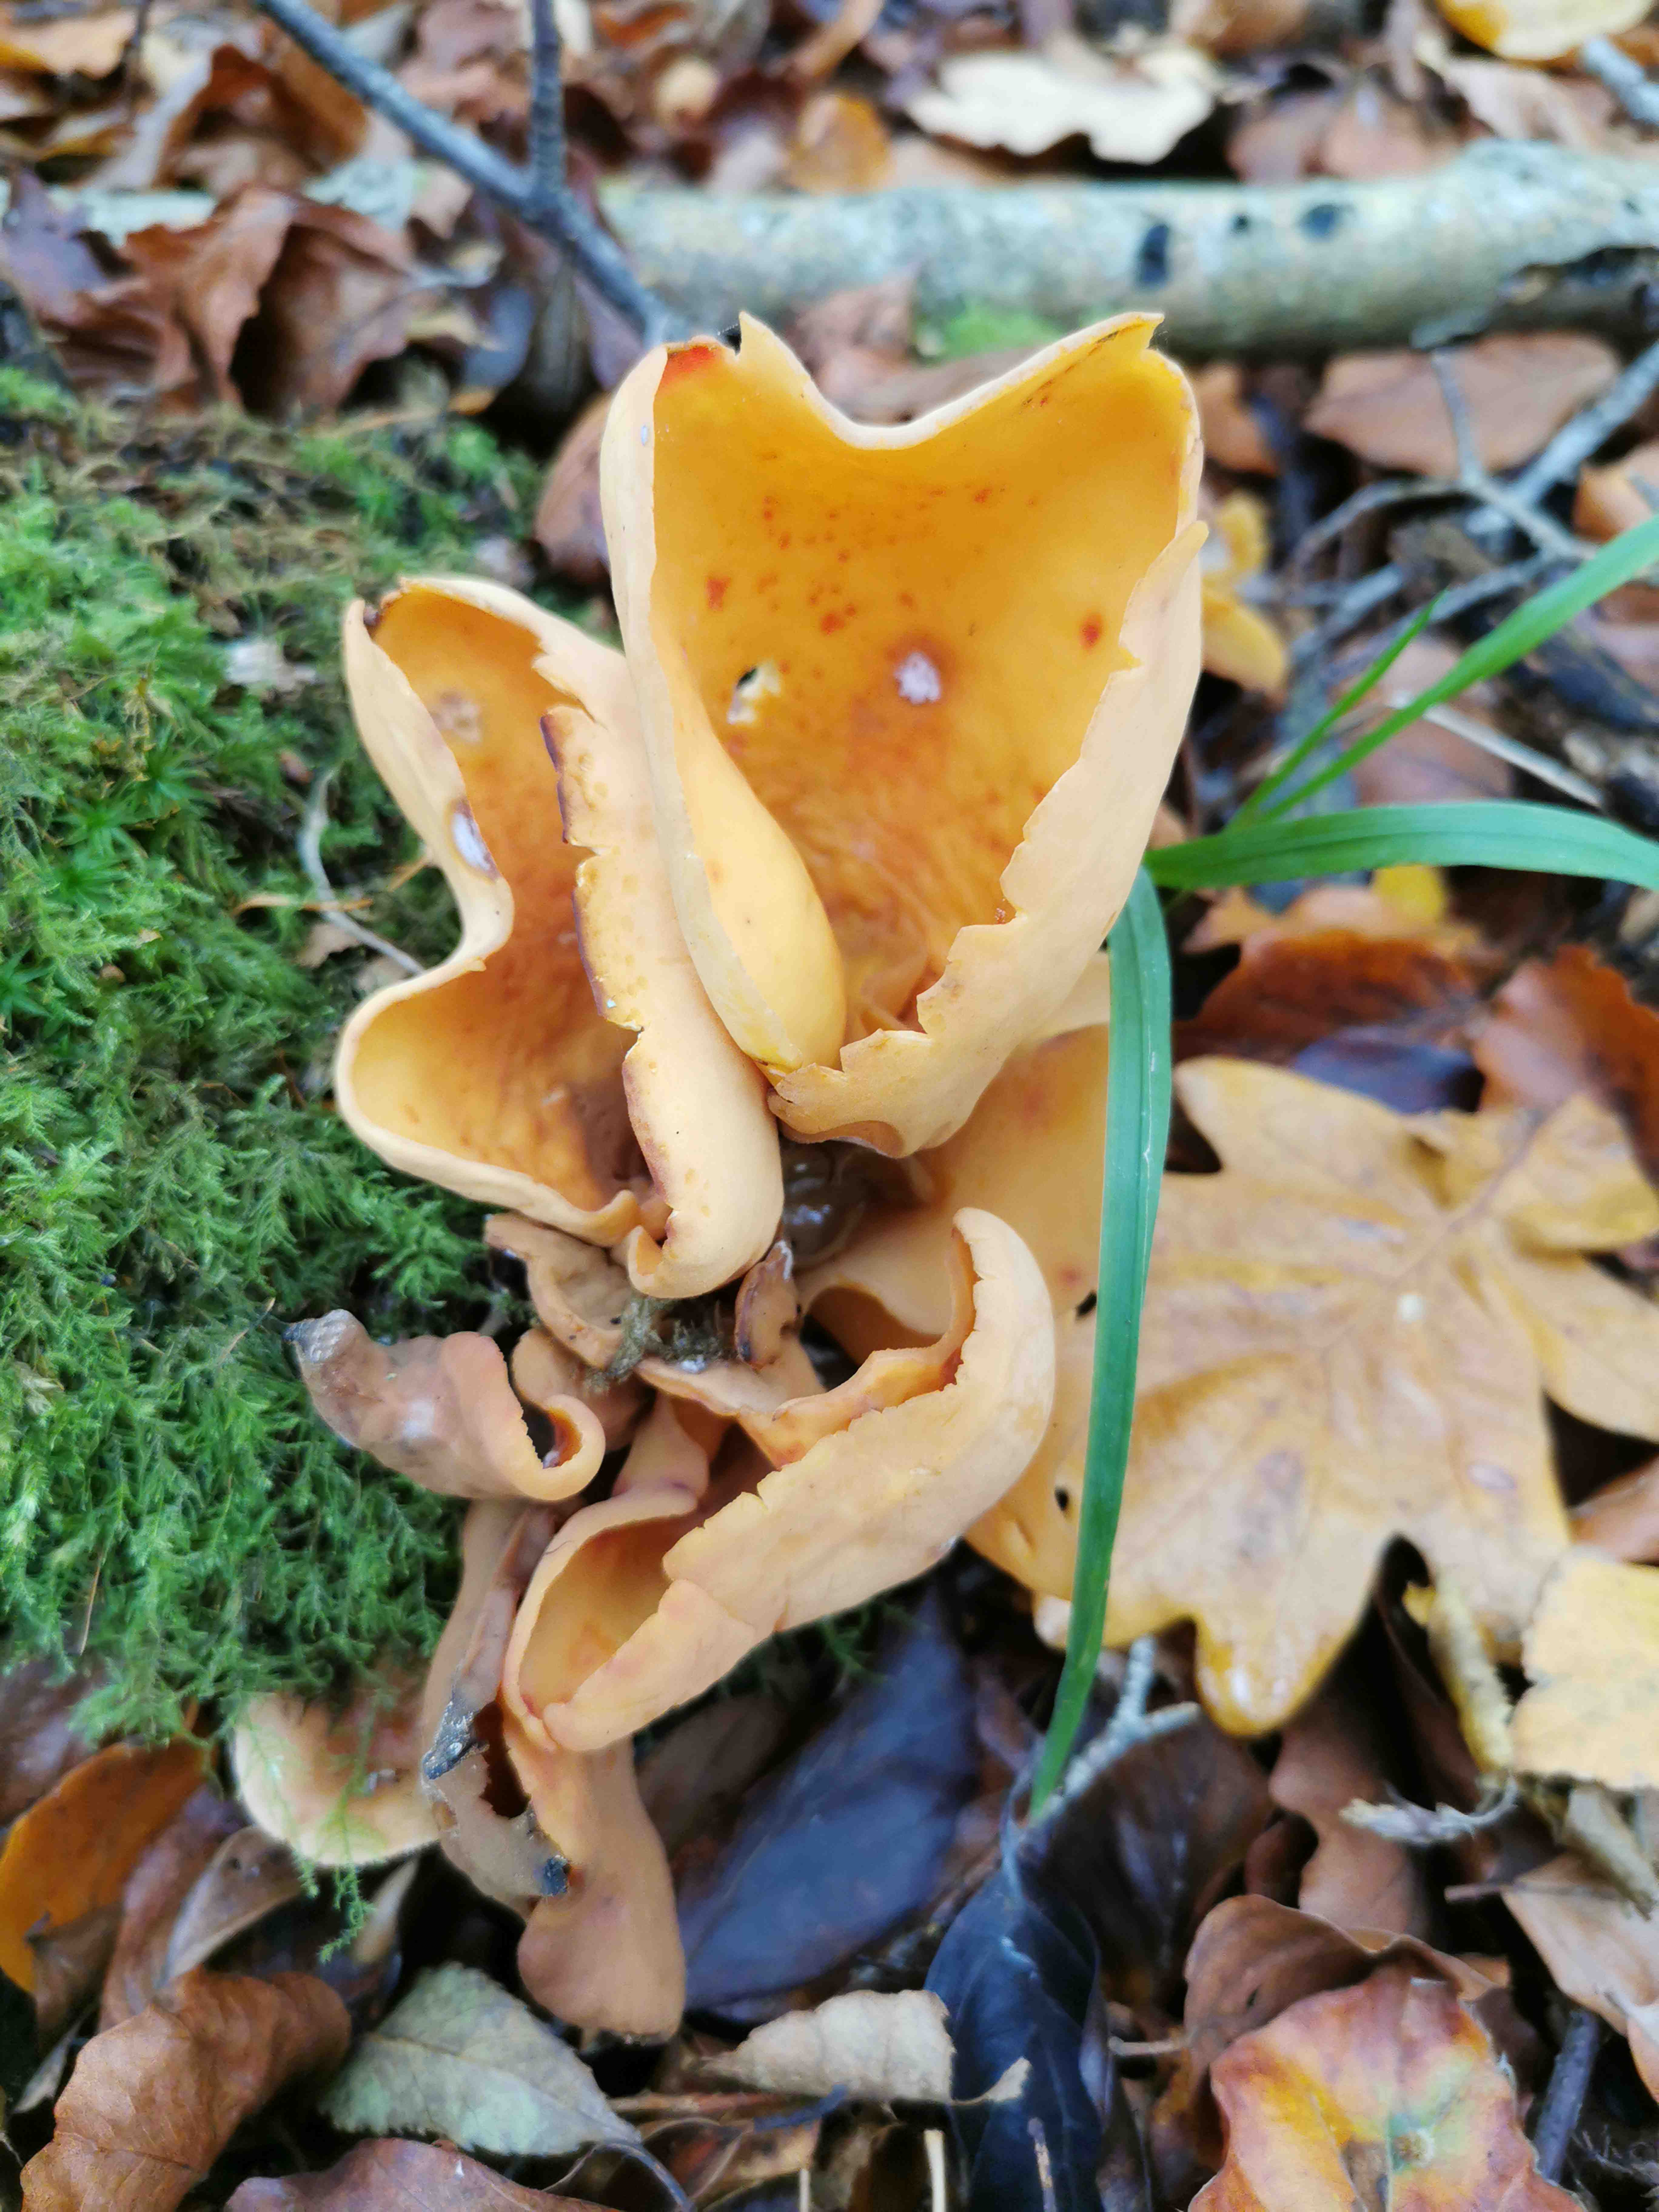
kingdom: Fungi
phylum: Ascomycota
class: Pezizomycetes
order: Pezizales
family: Otideaceae
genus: Otidea
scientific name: Otidea onotica
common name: æsel-ørebæger
